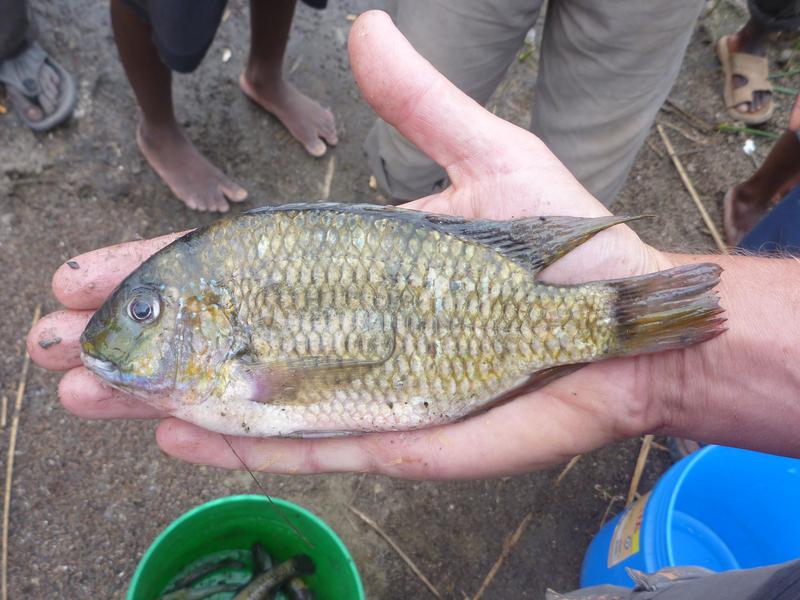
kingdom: Animalia
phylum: Chordata
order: Perciformes
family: Cichlidae
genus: Coptodon
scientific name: Coptodon rendalli
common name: Redbreast tilapia
